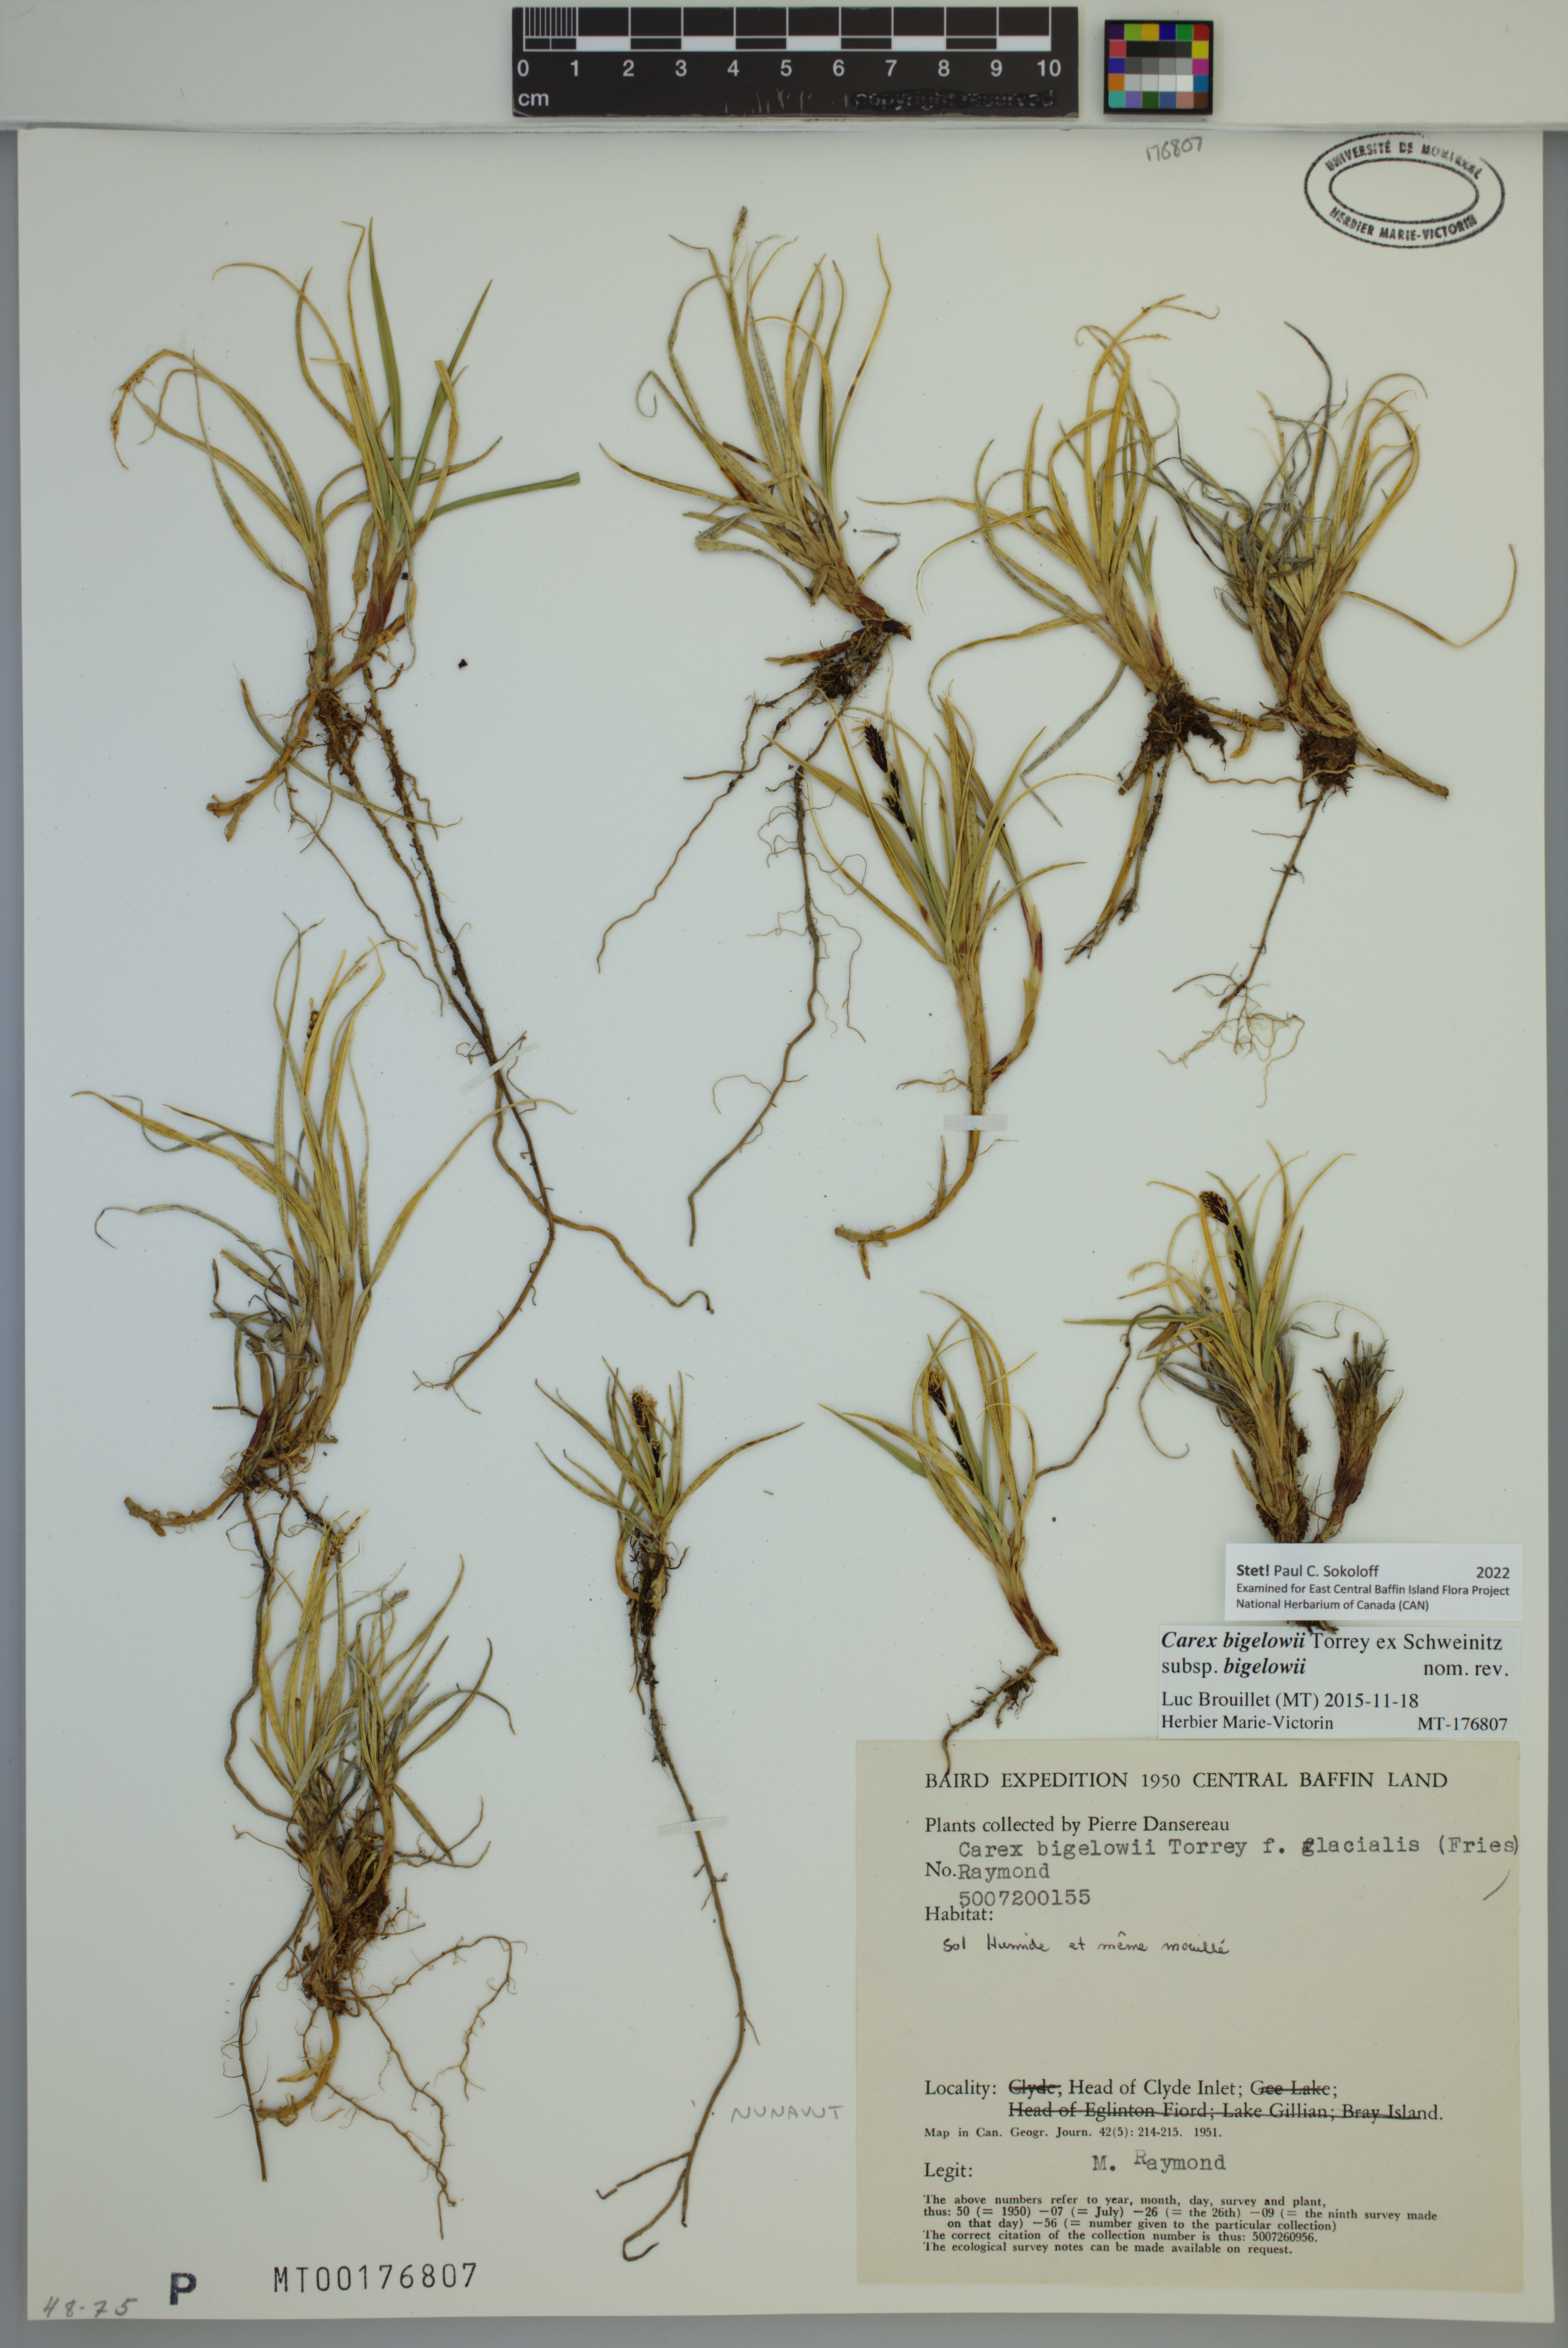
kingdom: Plantae
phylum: Tracheophyta
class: Liliopsida
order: Poales
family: Cyperaceae
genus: Carex
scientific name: Carex bigelowii
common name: Stiff sedge
